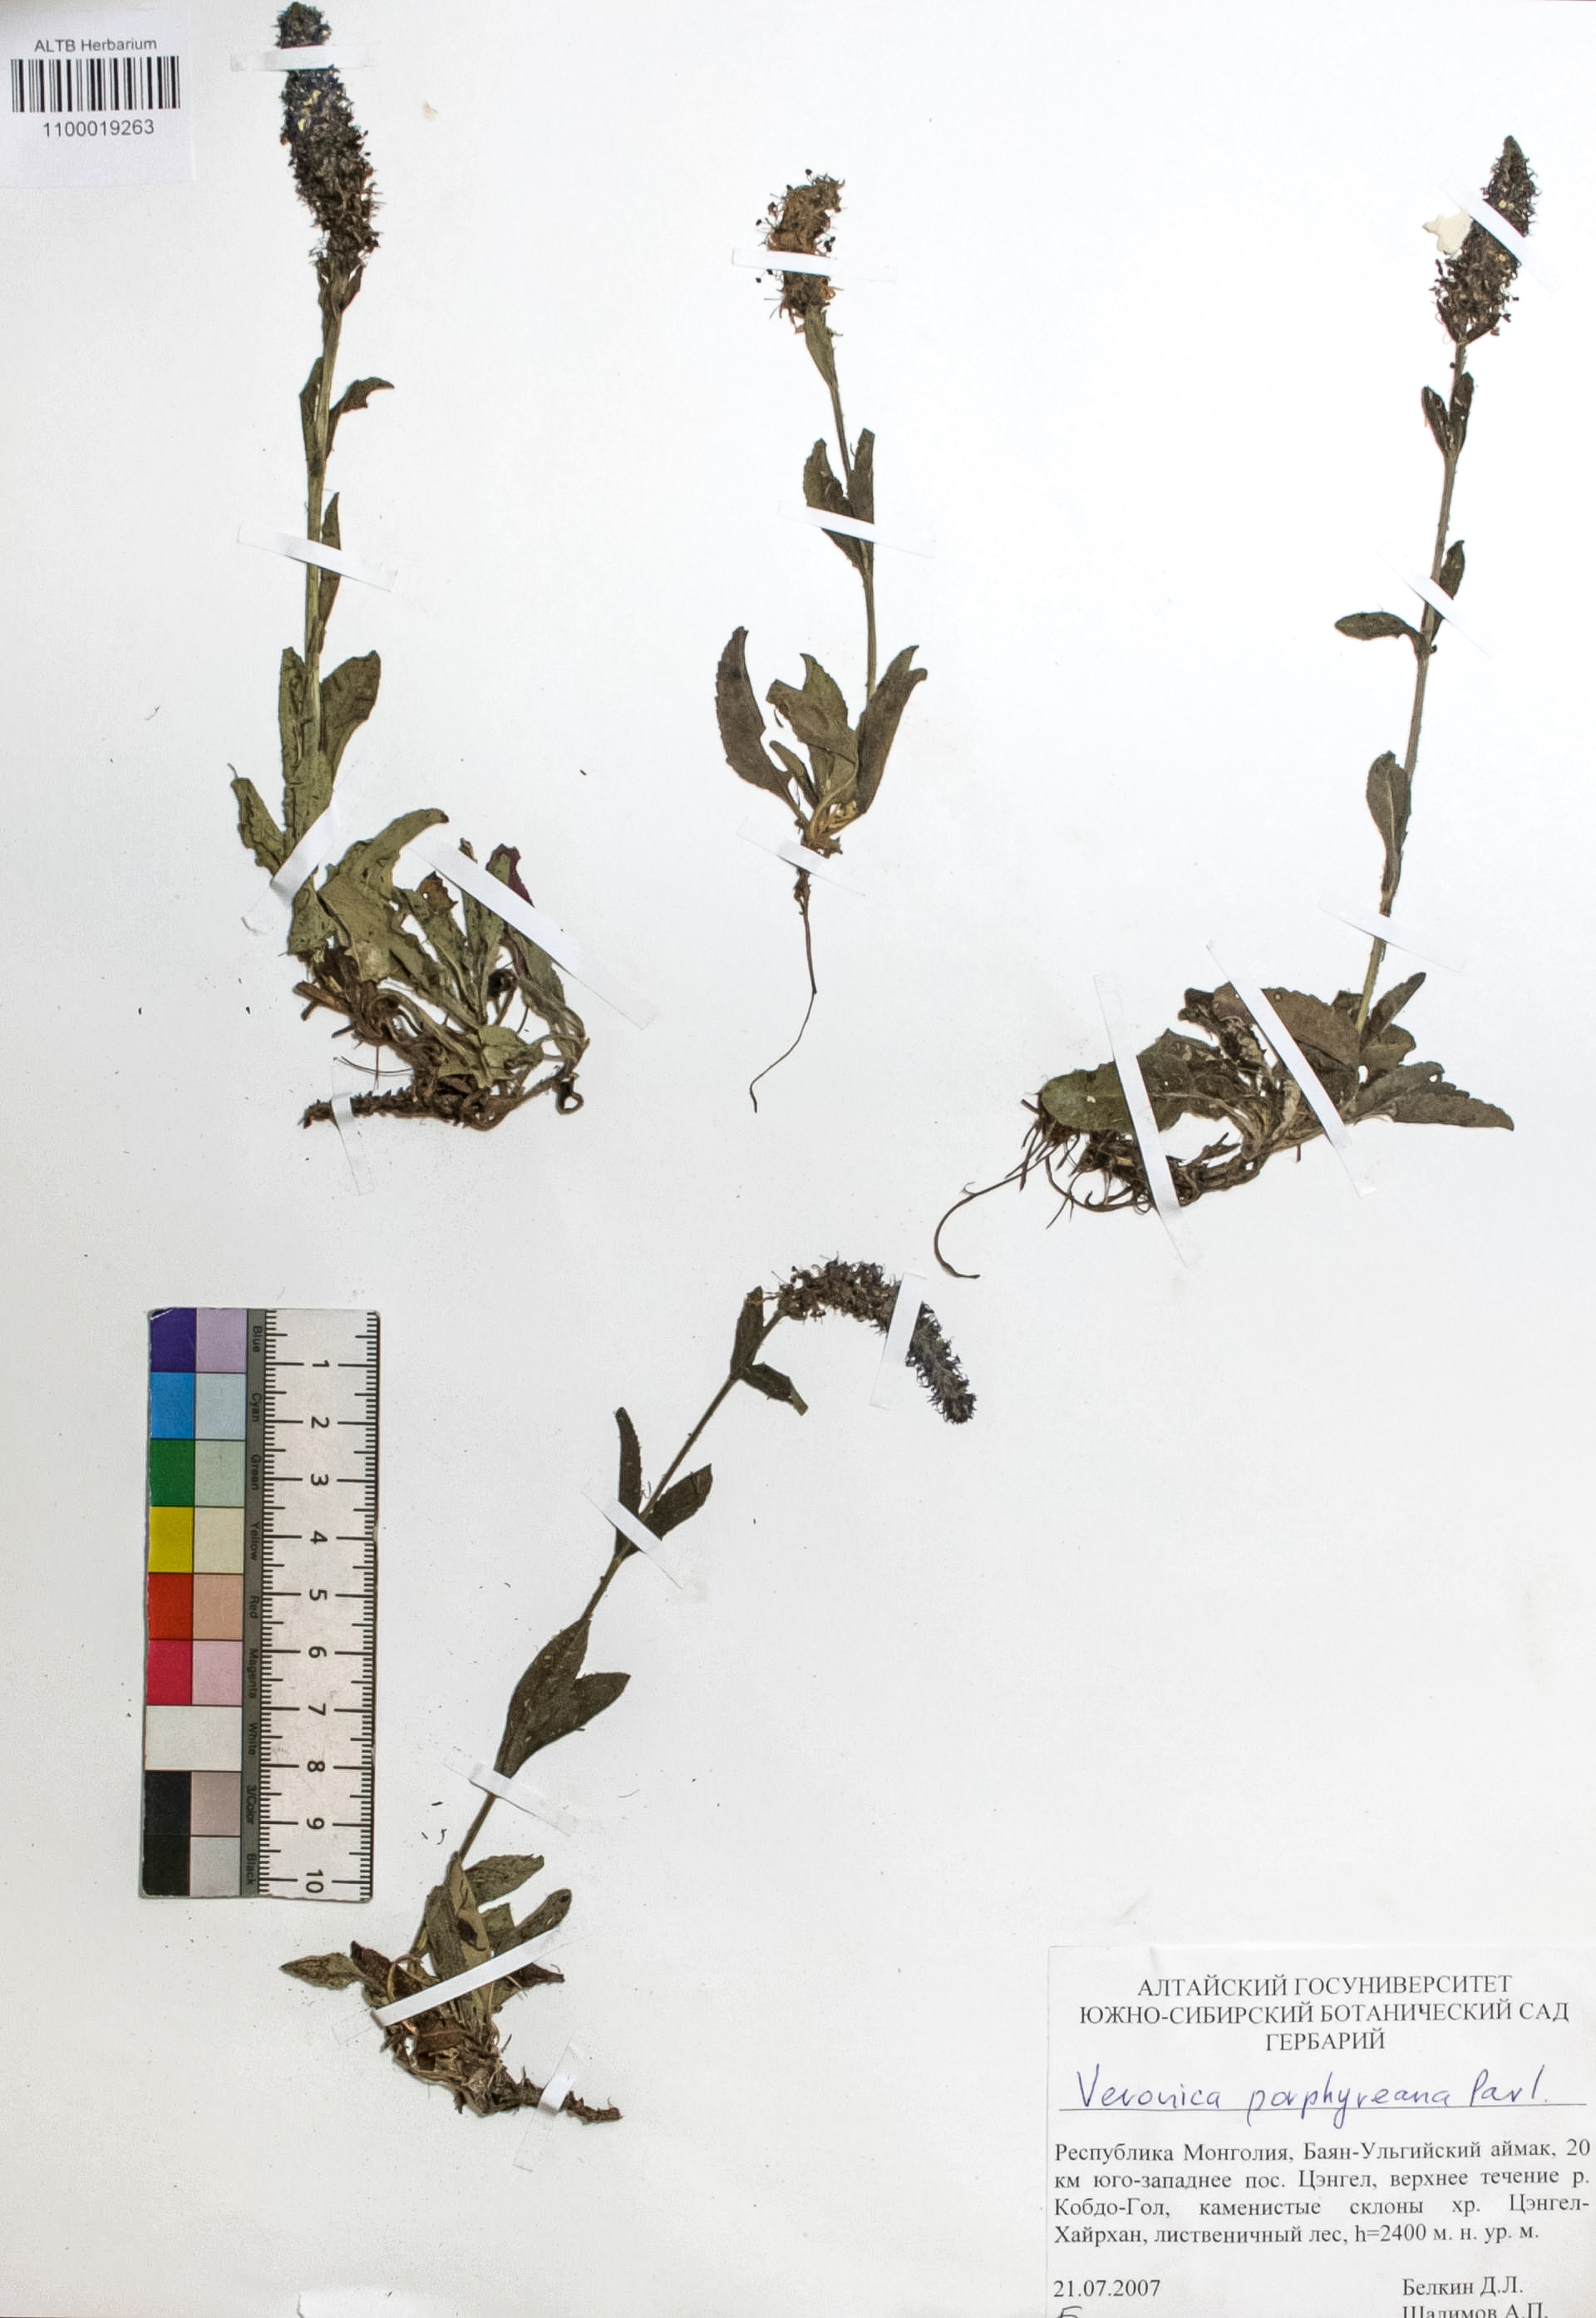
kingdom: Plantae
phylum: Tracheophyta
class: Magnoliopsida
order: Lamiales
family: Plantaginaceae
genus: Veronica
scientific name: Veronica porphyriana
